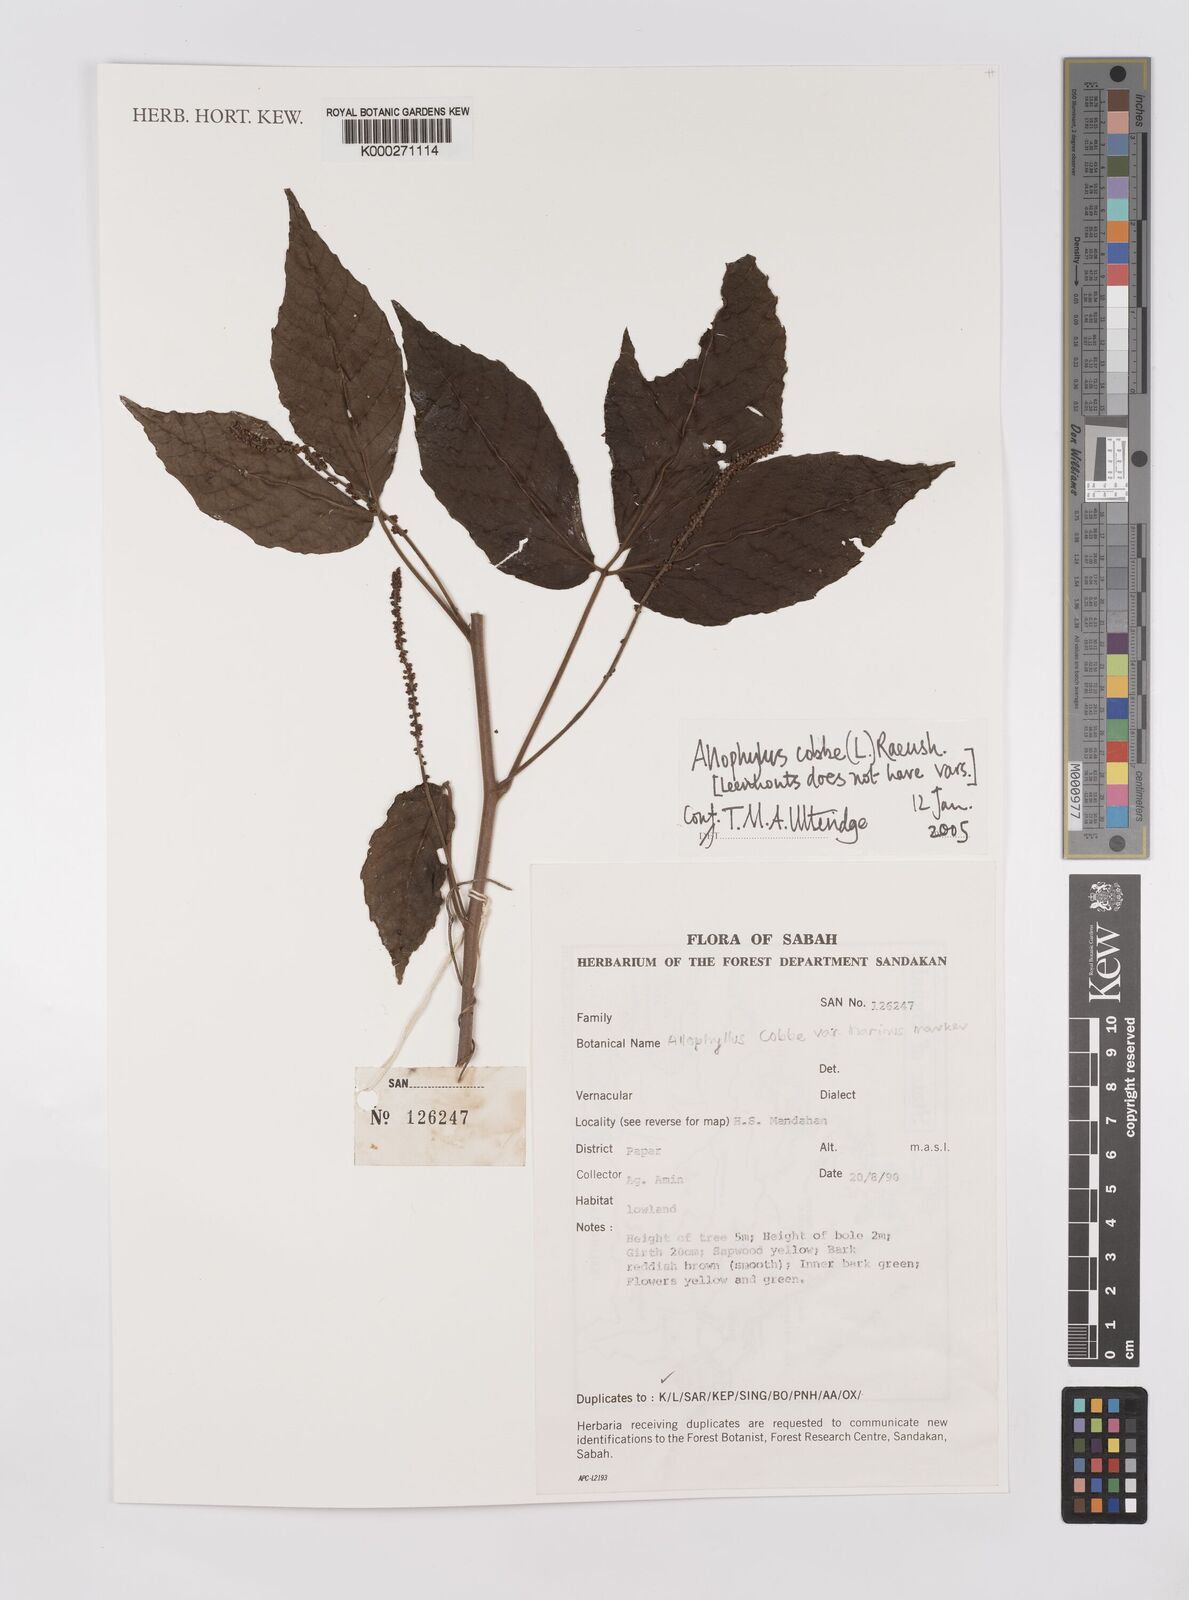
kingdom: Plantae
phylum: Tracheophyta
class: Magnoliopsida
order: Sapindales
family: Sapindaceae
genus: Allophylus
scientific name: Allophylus
